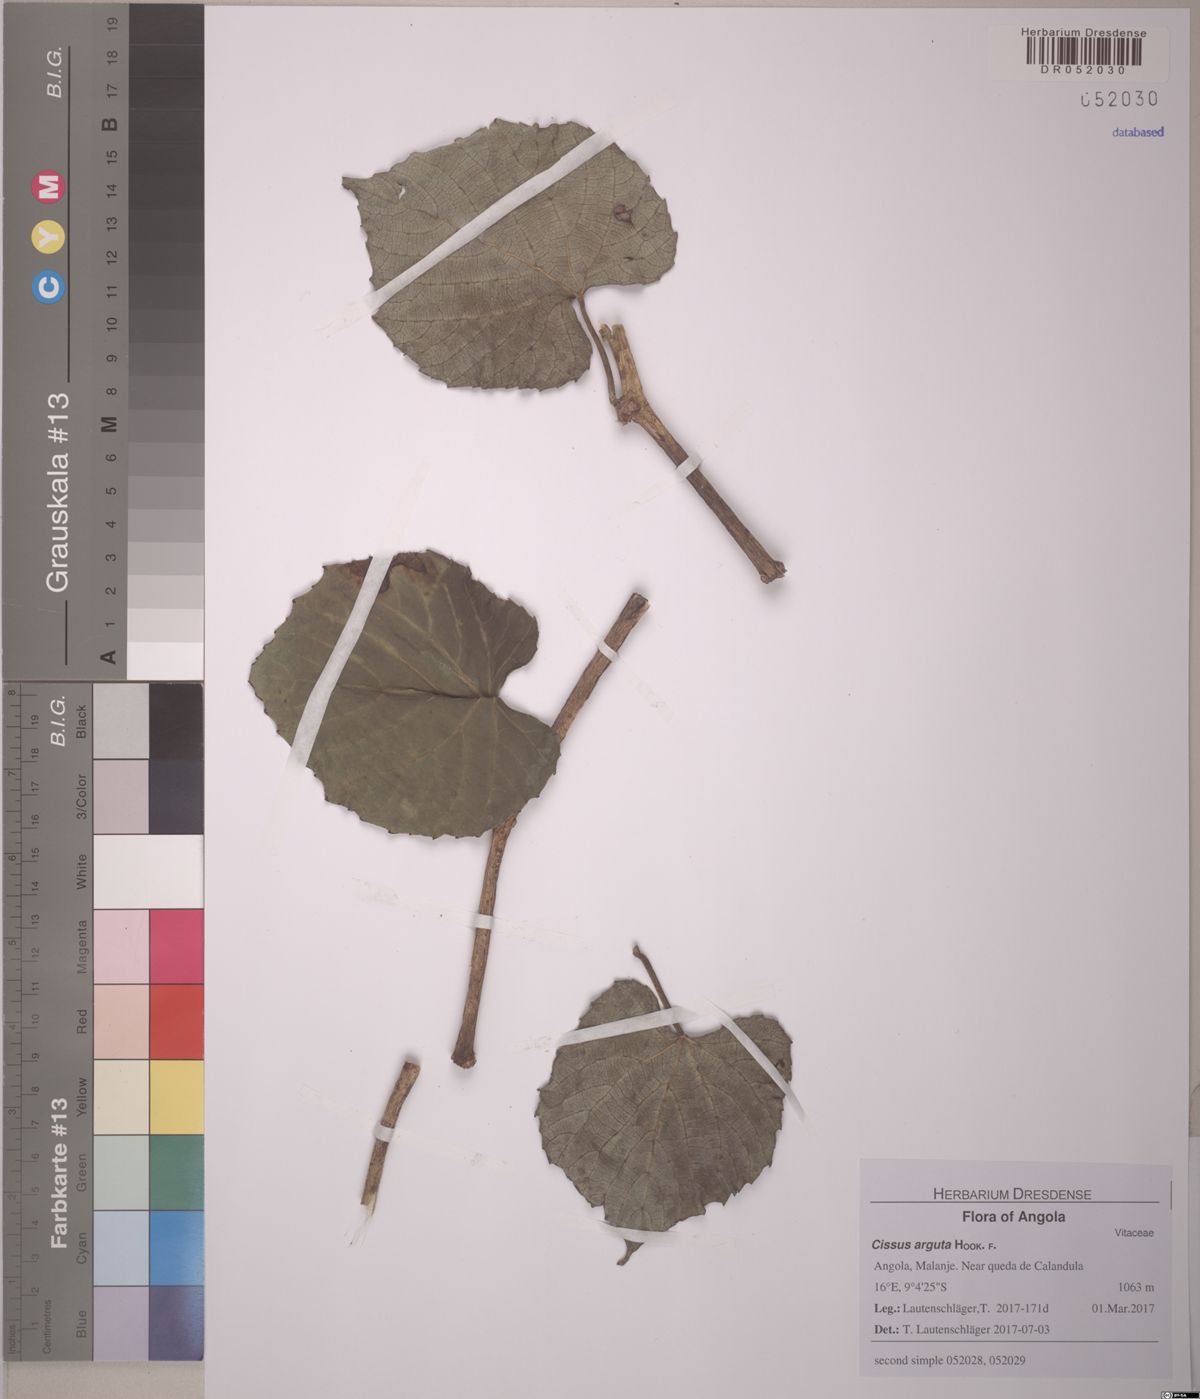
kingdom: Plantae
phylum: Tracheophyta
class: Magnoliopsida
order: Vitales
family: Vitaceae
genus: Cissus
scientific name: Cissus arguta
